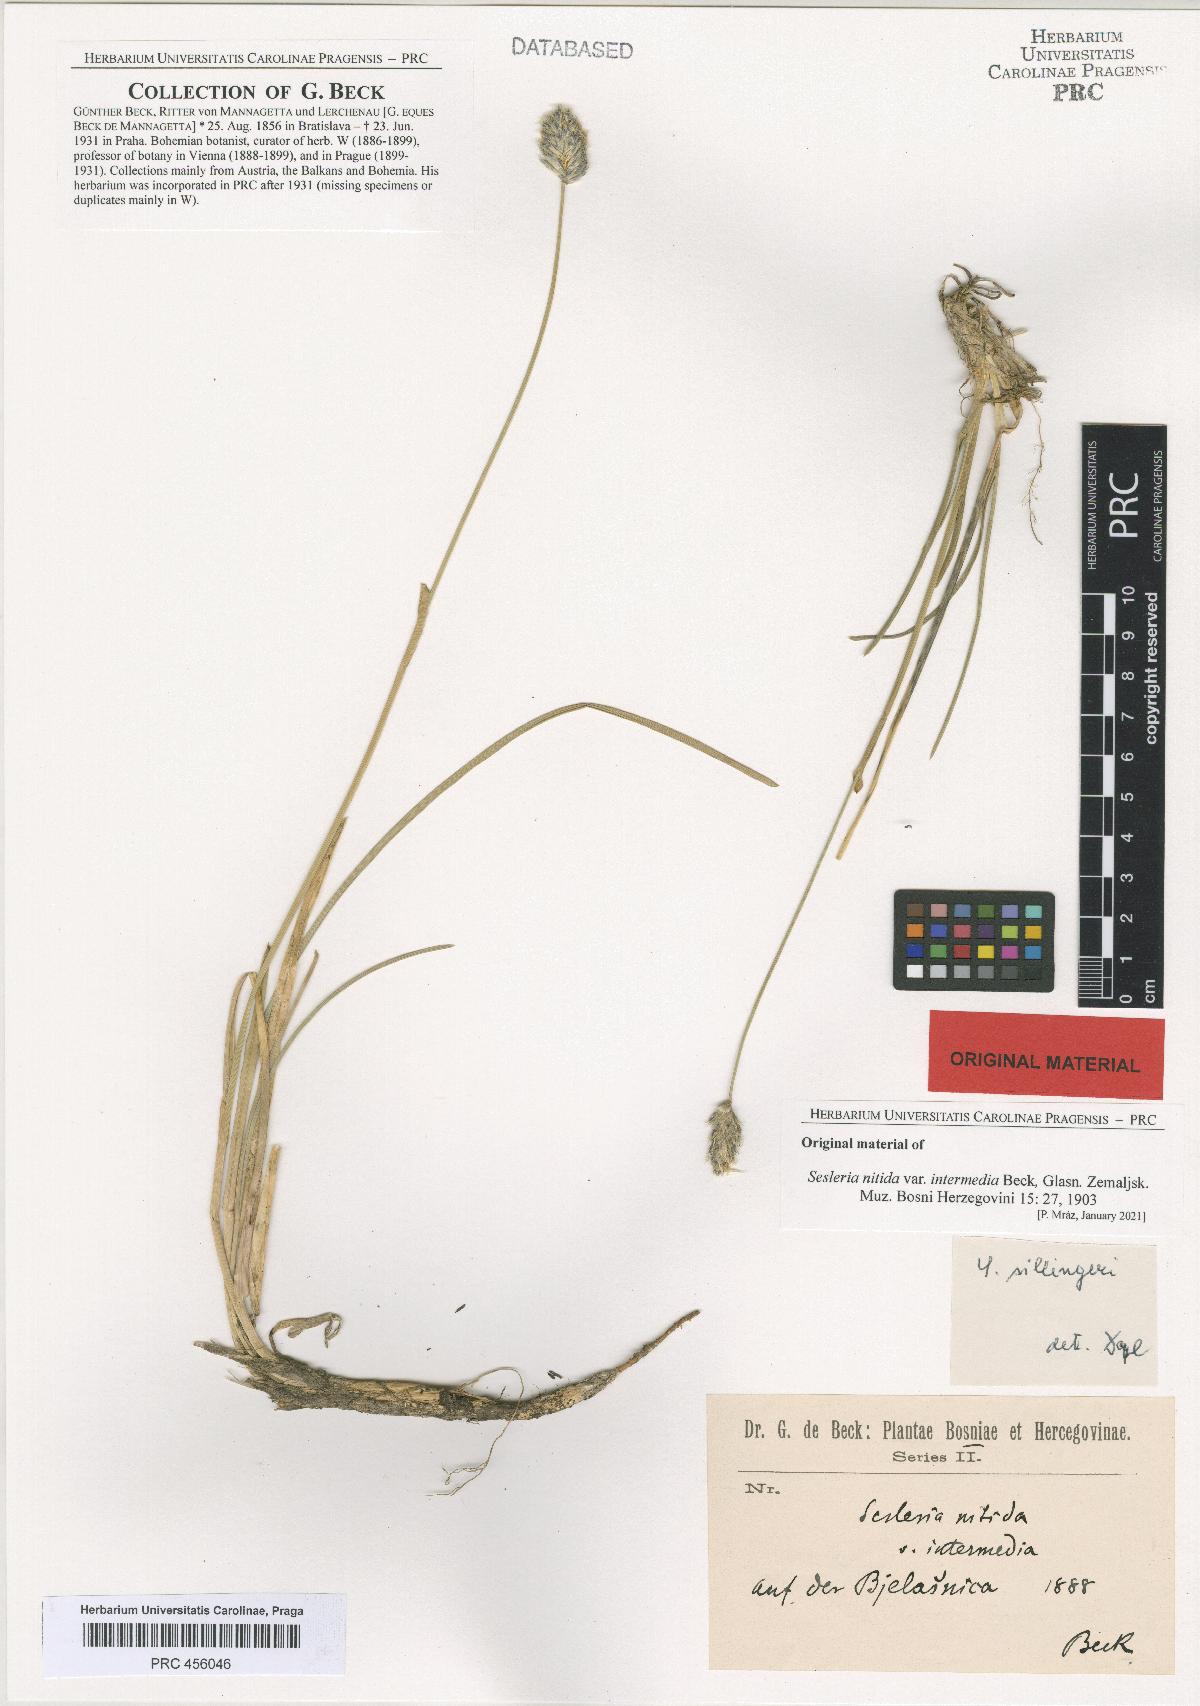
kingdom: Plantae
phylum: Tracheophyta
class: Liliopsida
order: Poales
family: Poaceae
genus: Sesleria
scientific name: Sesleria robusta
